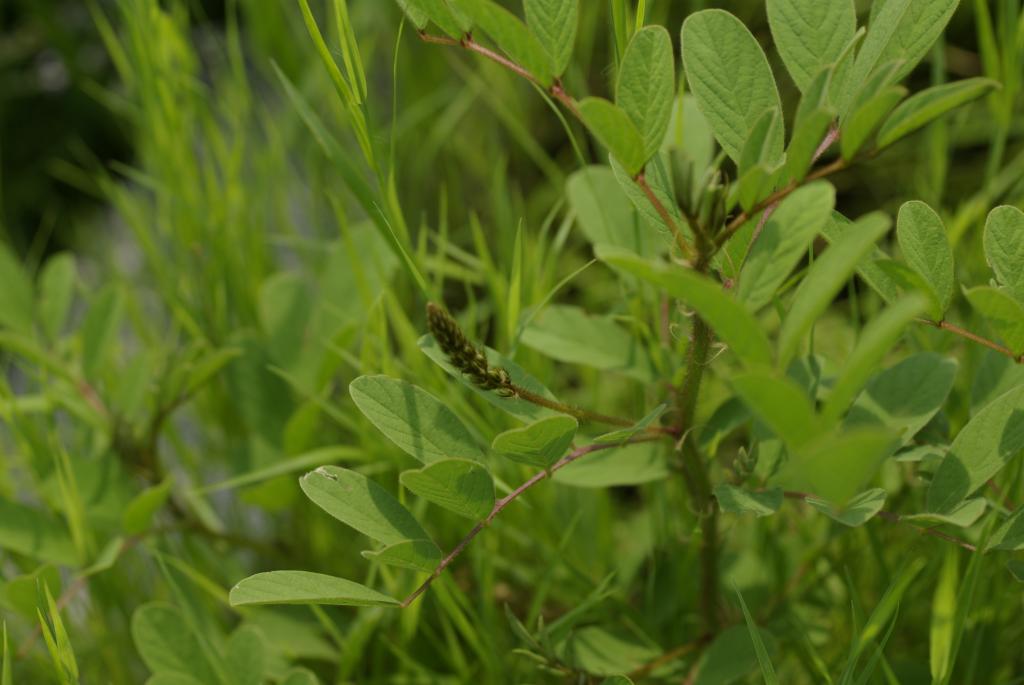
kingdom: Plantae
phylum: Tracheophyta
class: Magnoliopsida
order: Fabales
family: Fabaceae
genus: Indigofera
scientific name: Indigofera hirsuta
